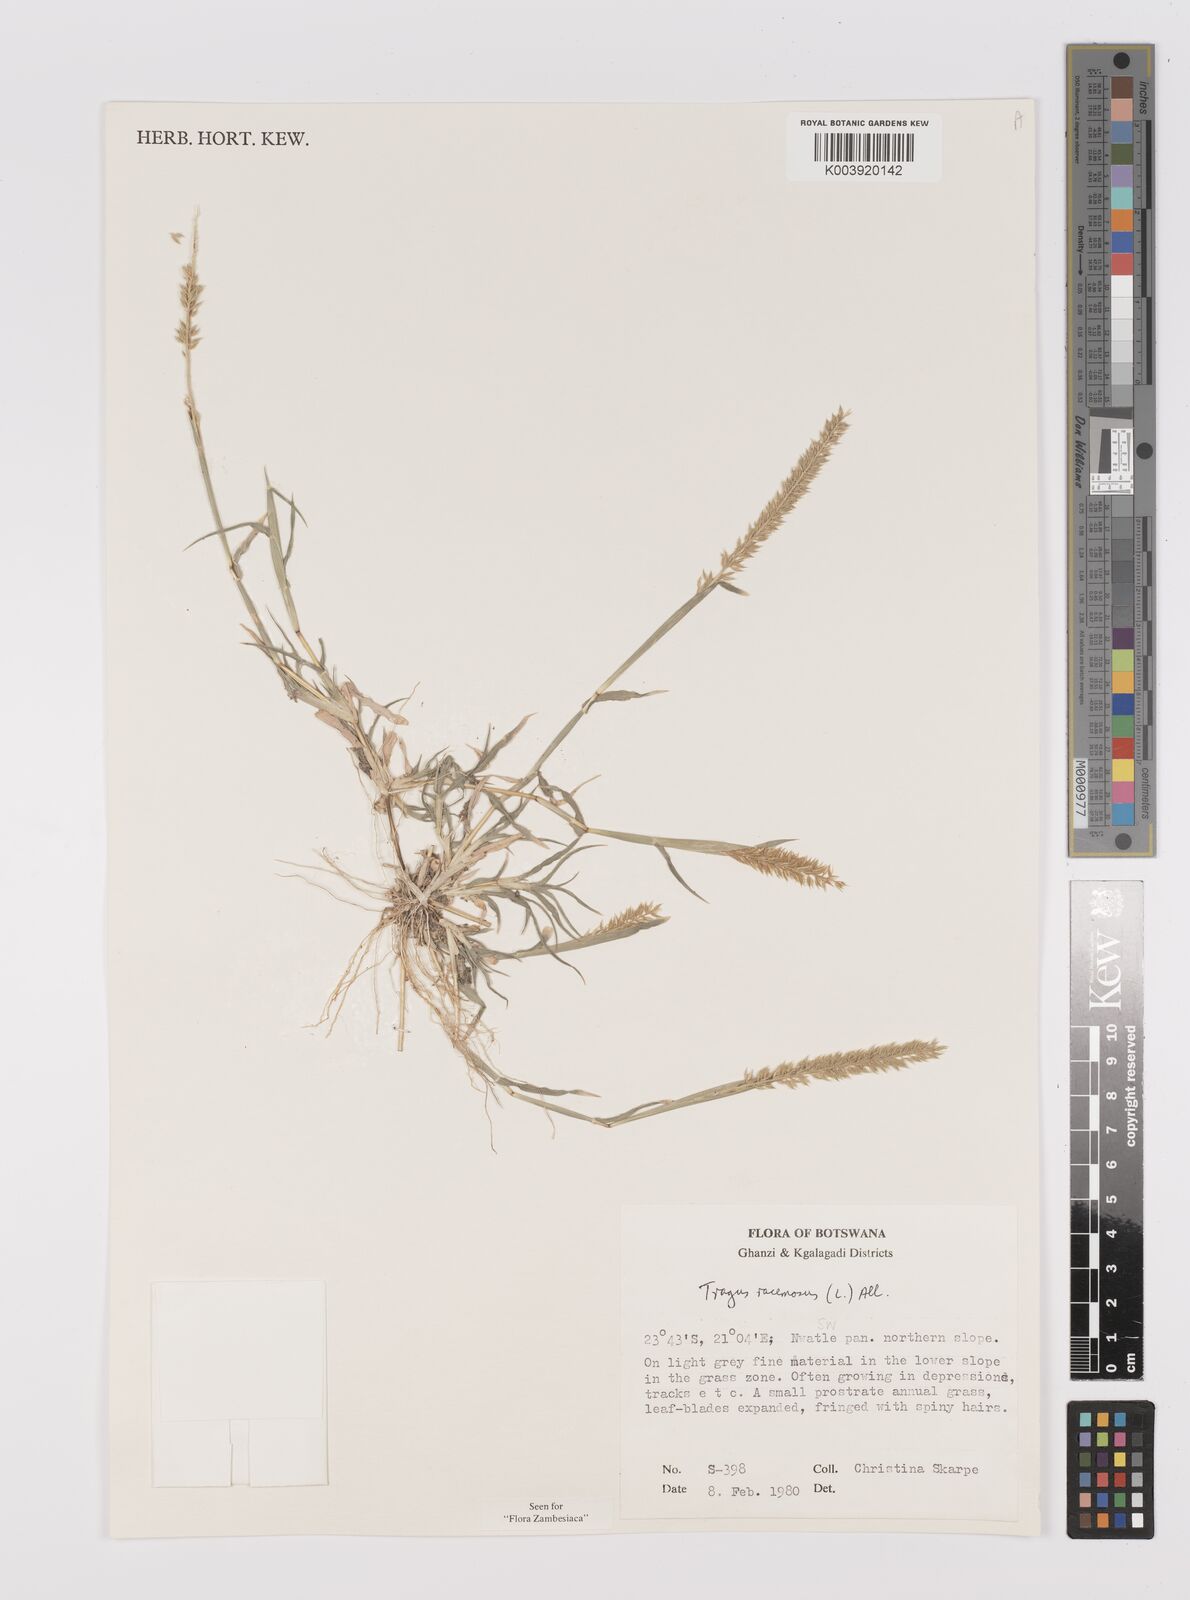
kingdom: Plantae
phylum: Tracheophyta
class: Liliopsida
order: Poales
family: Poaceae
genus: Tragus
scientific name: Tragus racemosus
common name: European bur-grass
